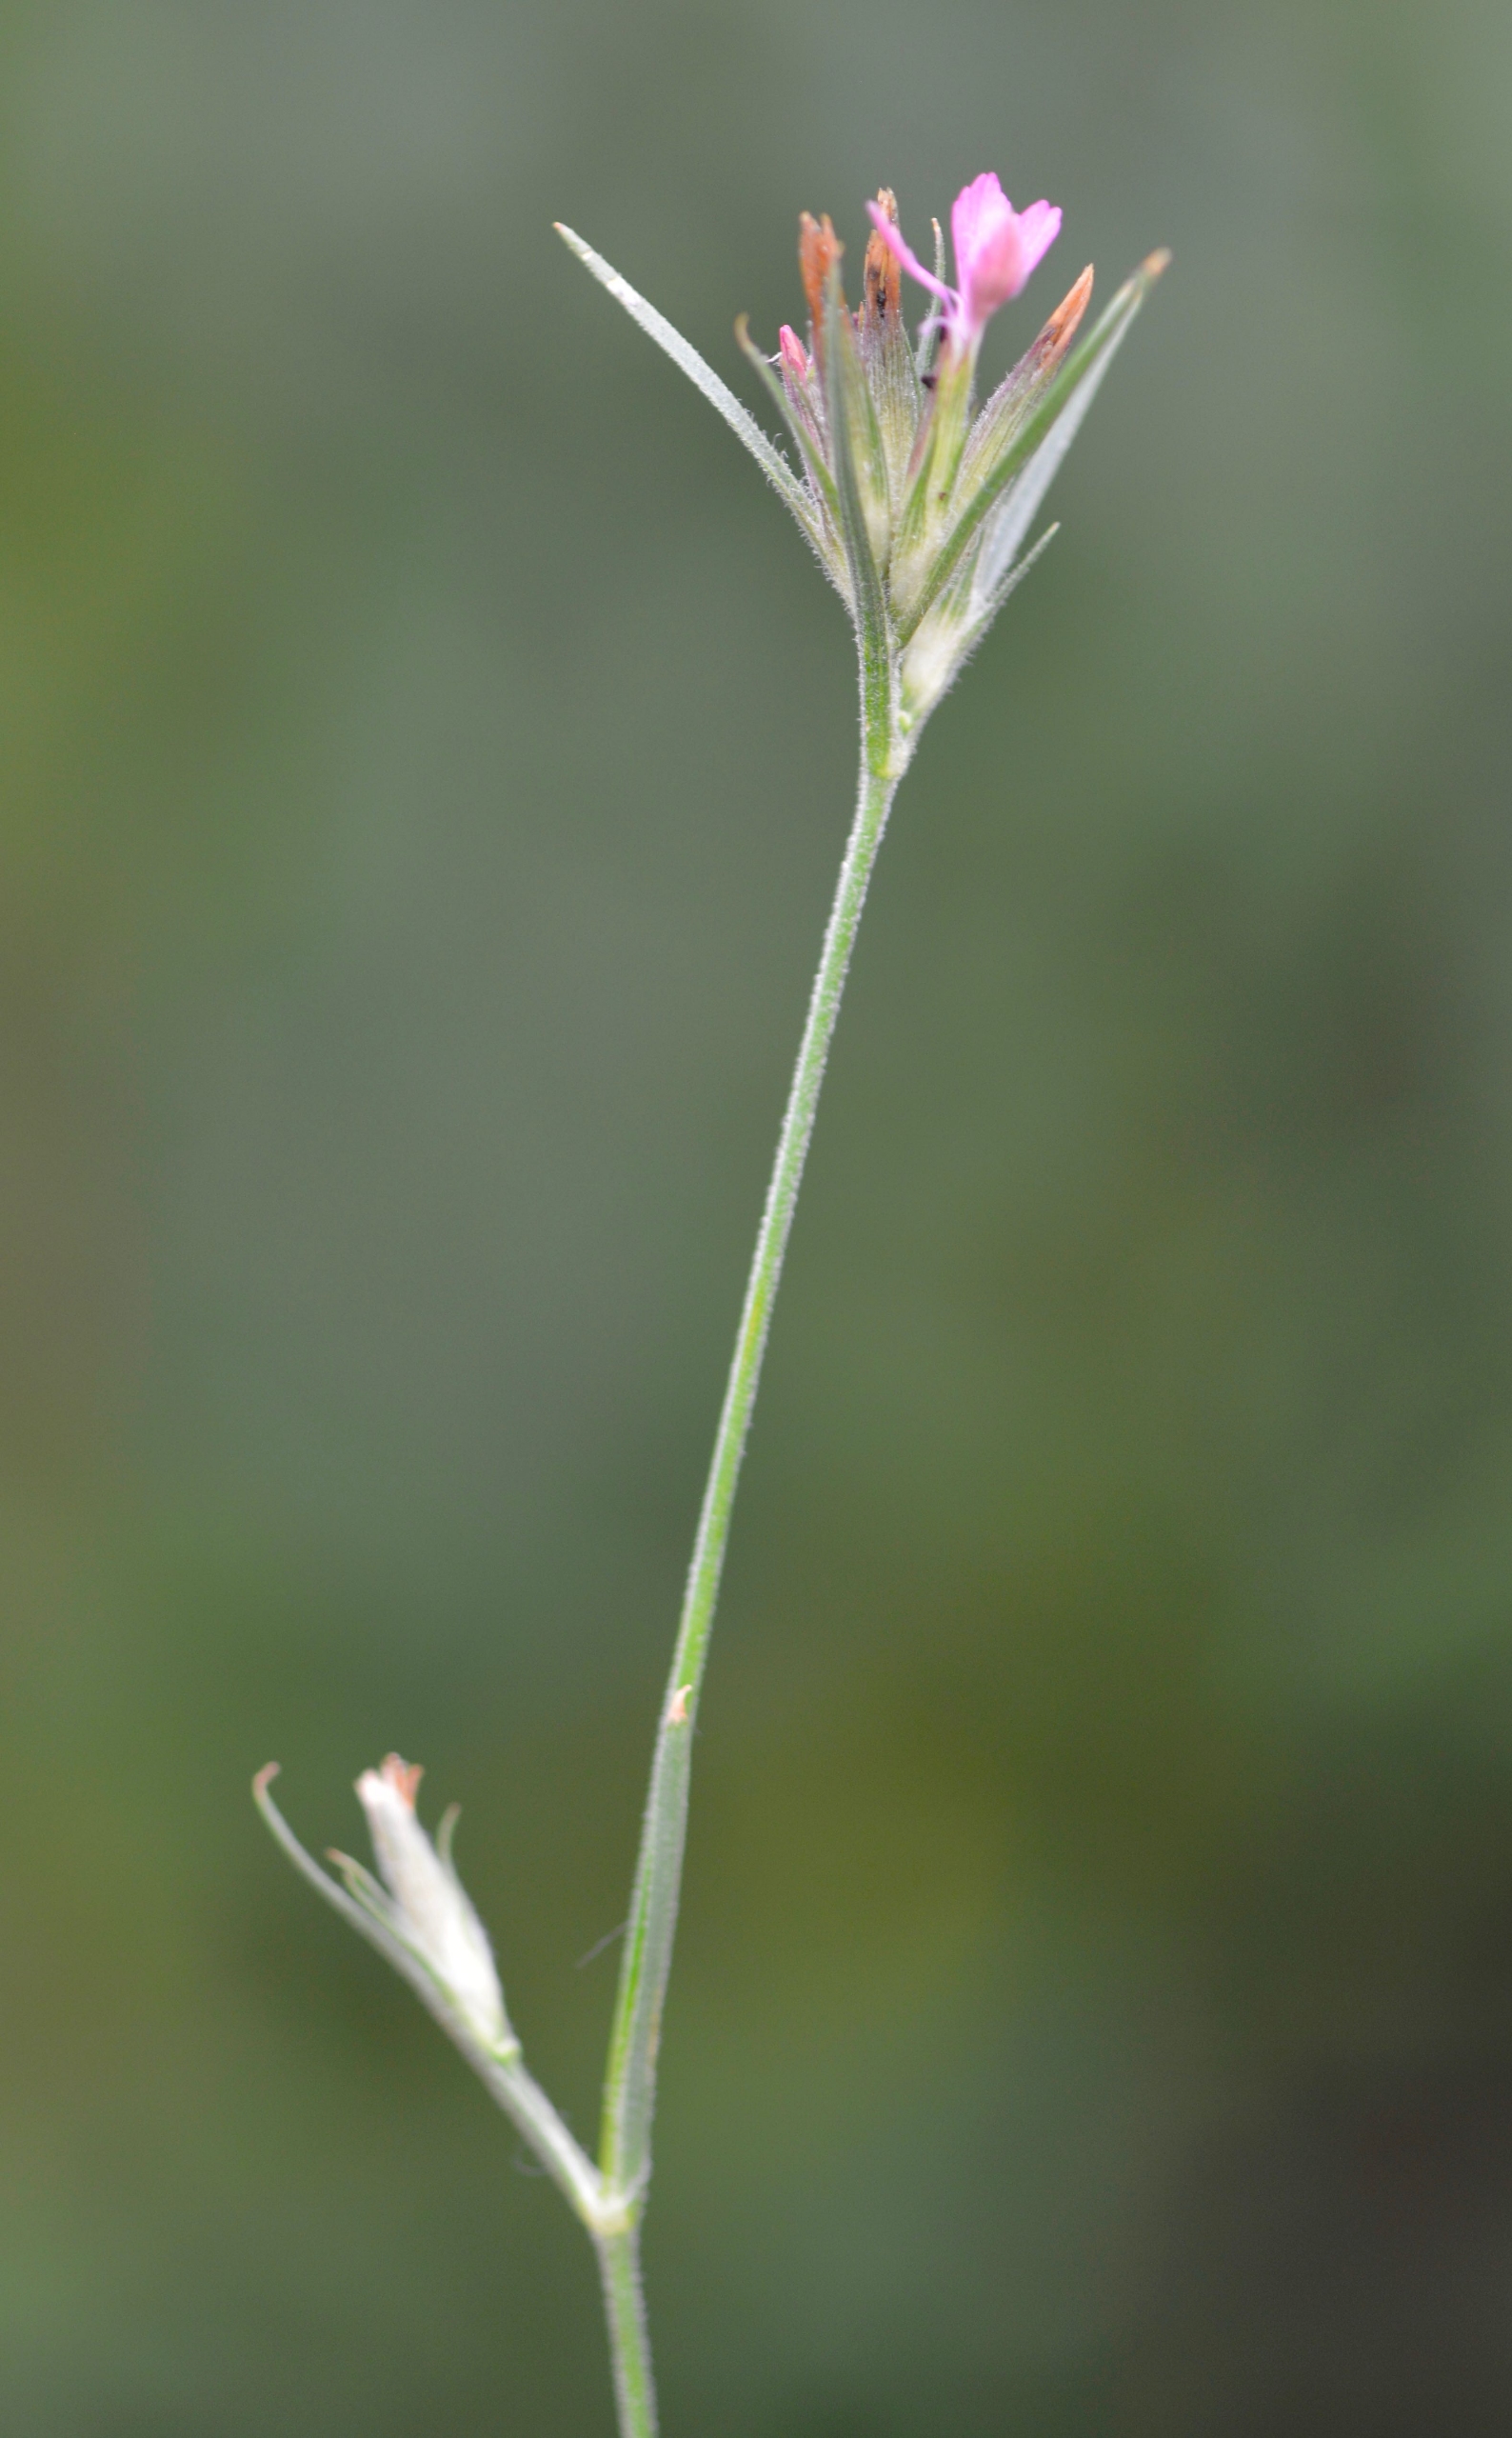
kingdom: Plantae
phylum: Tracheophyta
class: Magnoliopsida
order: Caryophyllales
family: Caryophyllaceae
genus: Dianthus
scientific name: Dianthus armeria
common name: Kost-nellike
